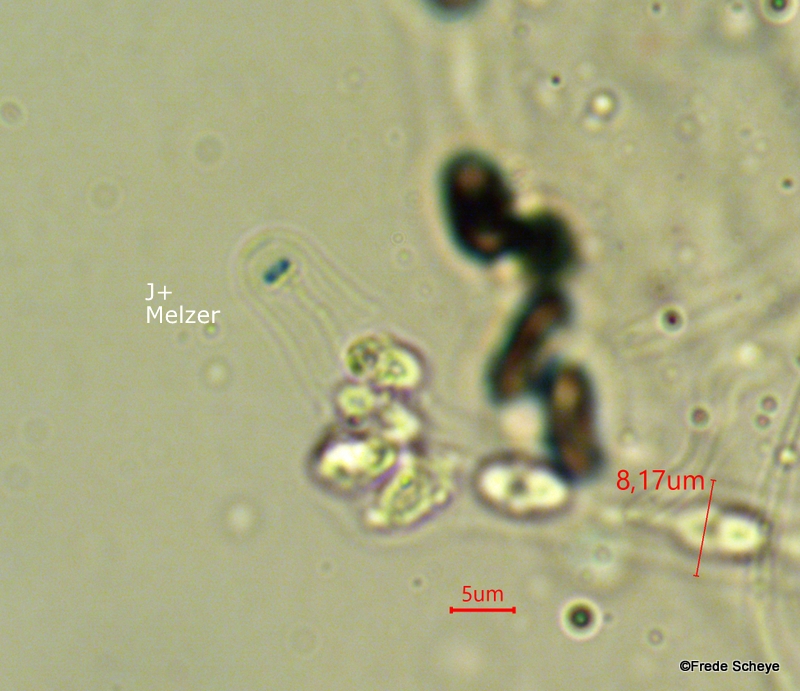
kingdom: Fungi
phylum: Ascomycota
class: Sordariomycetes
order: Xylariales
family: Diatrypaceae
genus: Anthostoma
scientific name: Anthostoma turgidum
